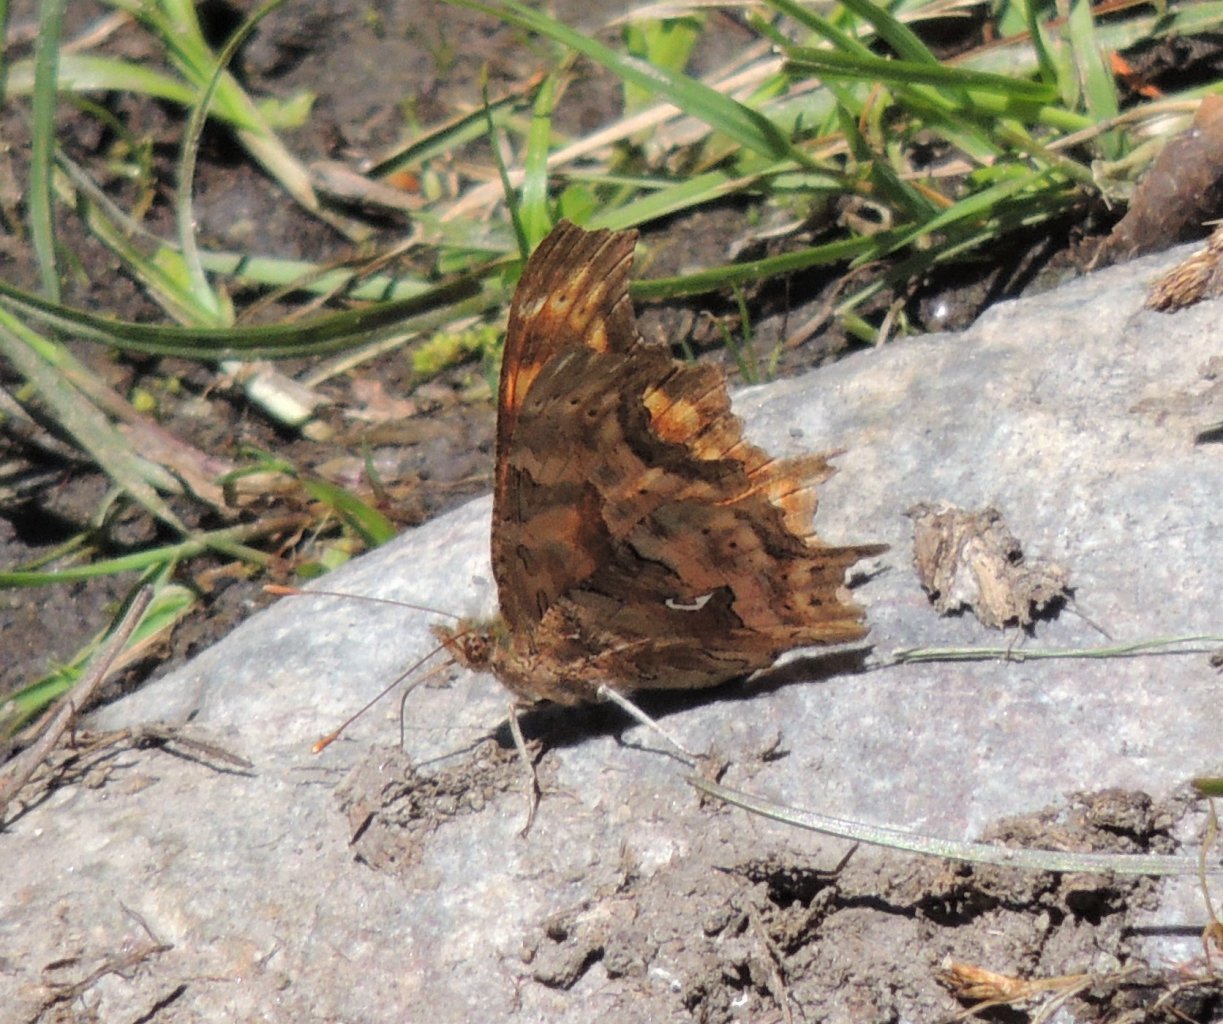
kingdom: Animalia
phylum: Arthropoda
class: Insecta
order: Lepidoptera
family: Nymphalidae
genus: Polygonia
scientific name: Polygonia satyrus
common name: Satyr Comma
